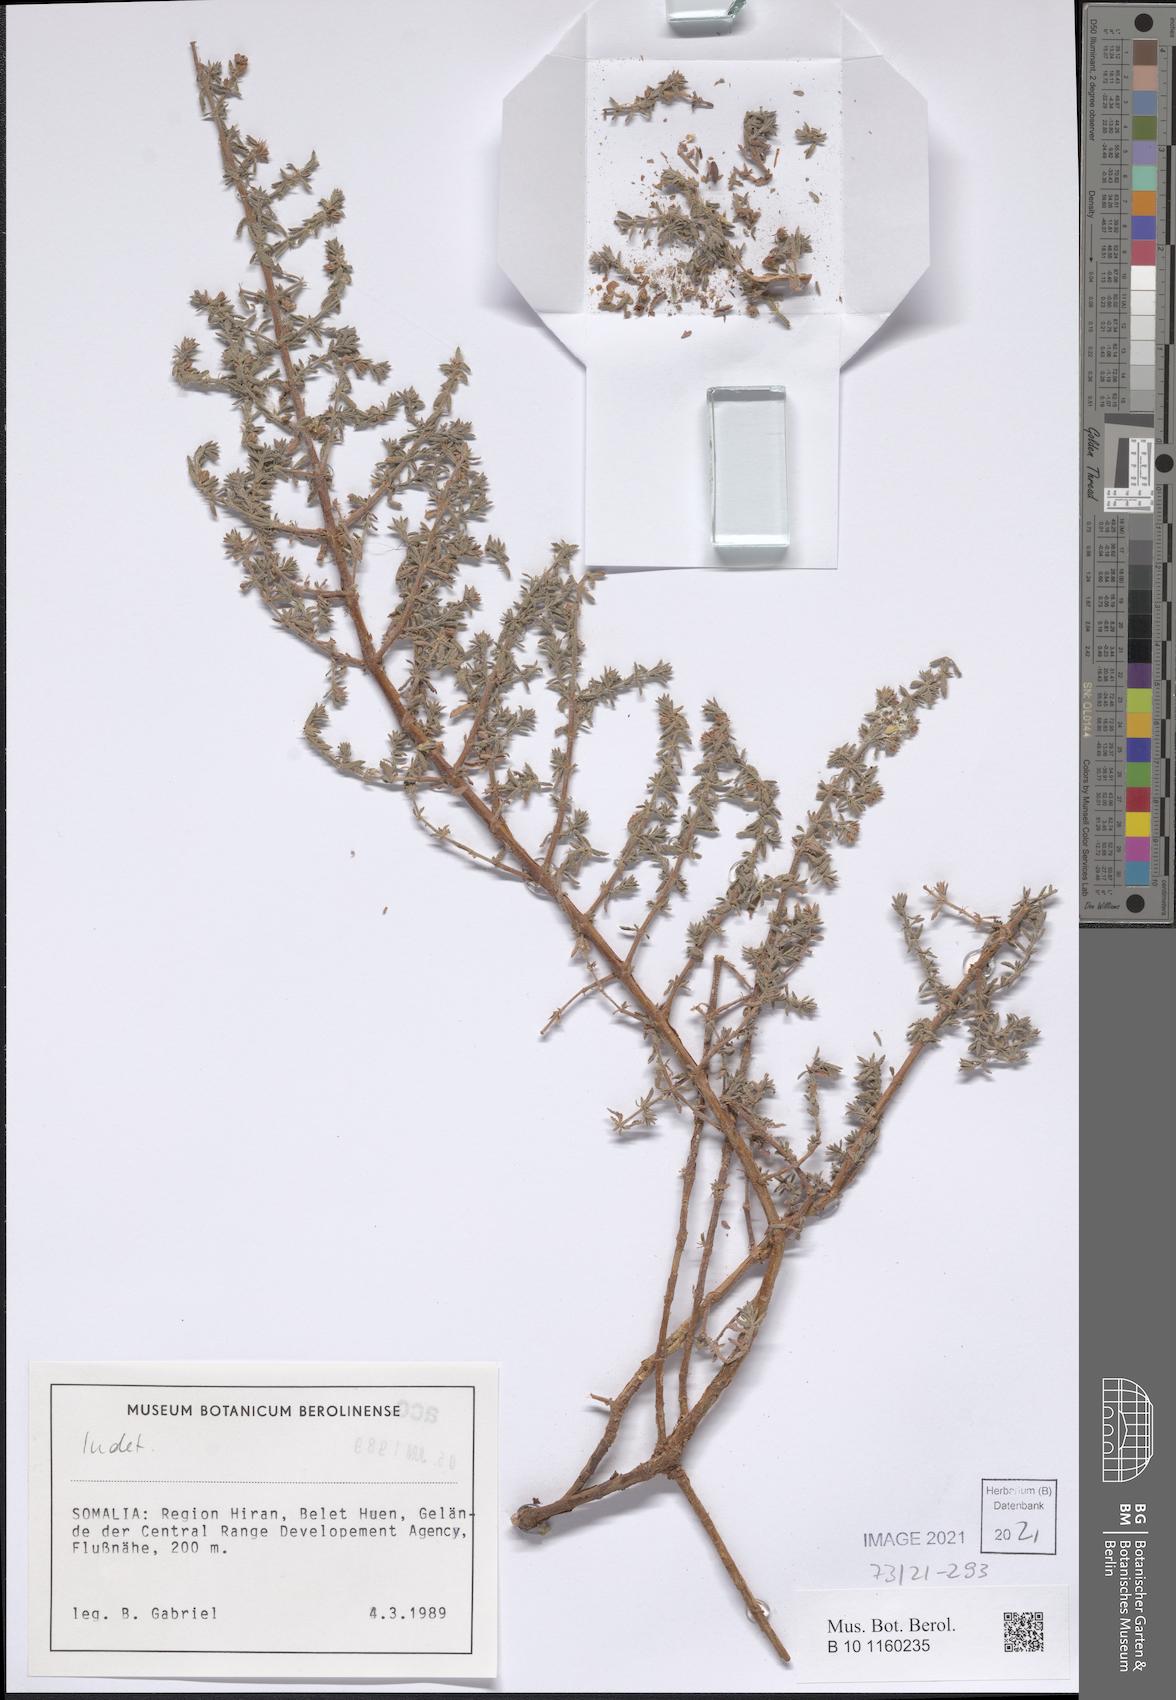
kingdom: Plantae
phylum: Tracheophyta
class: Magnoliopsida
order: Malpighiales
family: Elatinaceae
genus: Bergia
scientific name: Bergia suffruticosa
